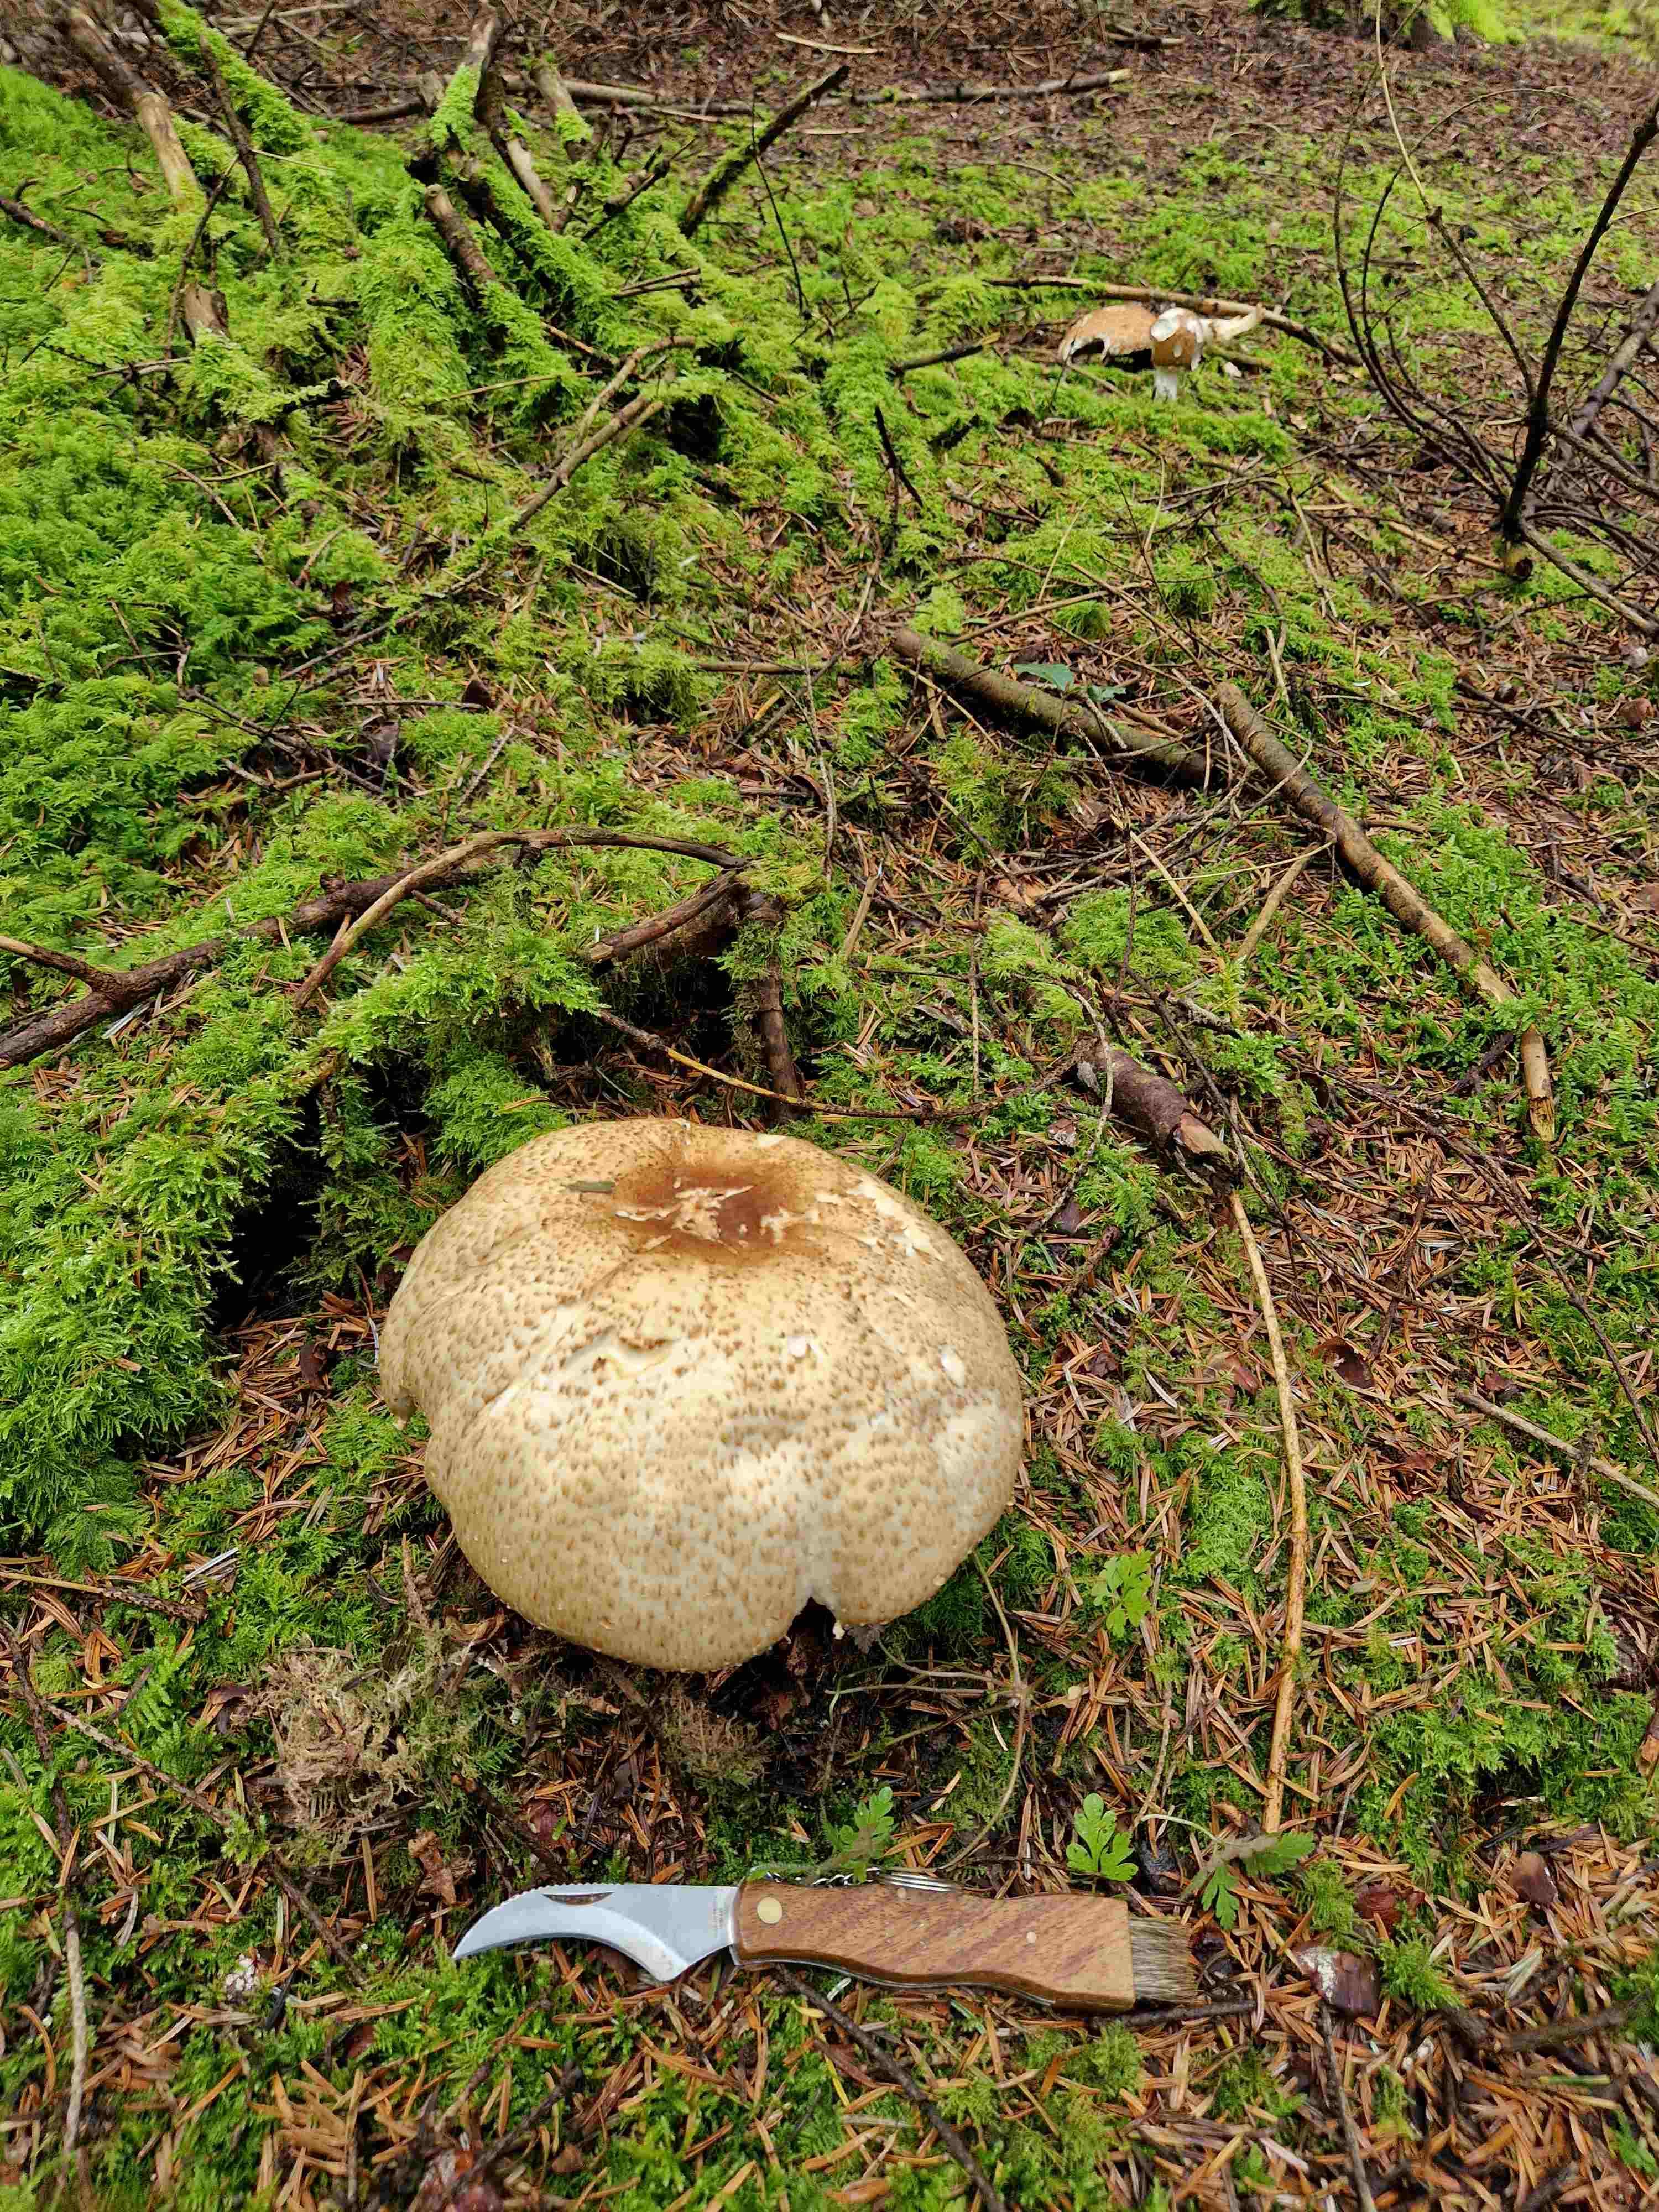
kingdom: Fungi
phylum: Basidiomycota
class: Agaricomycetes
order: Agaricales
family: Agaricaceae
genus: Agaricus
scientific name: Agaricus augustus
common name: prægtig champignon
